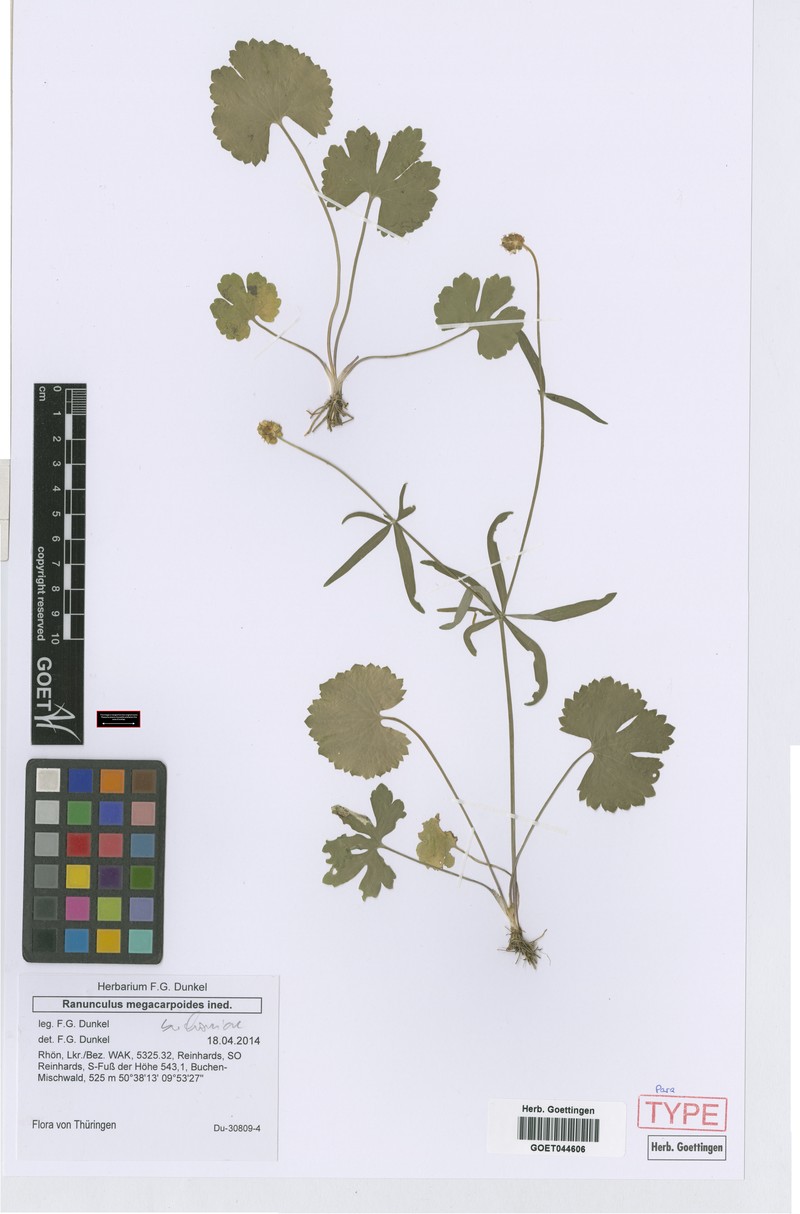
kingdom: Plantae
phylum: Tracheophyta
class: Magnoliopsida
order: Ranunculales
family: Ranunculaceae
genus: Ranunculus
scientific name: Ranunculus buchoniae
